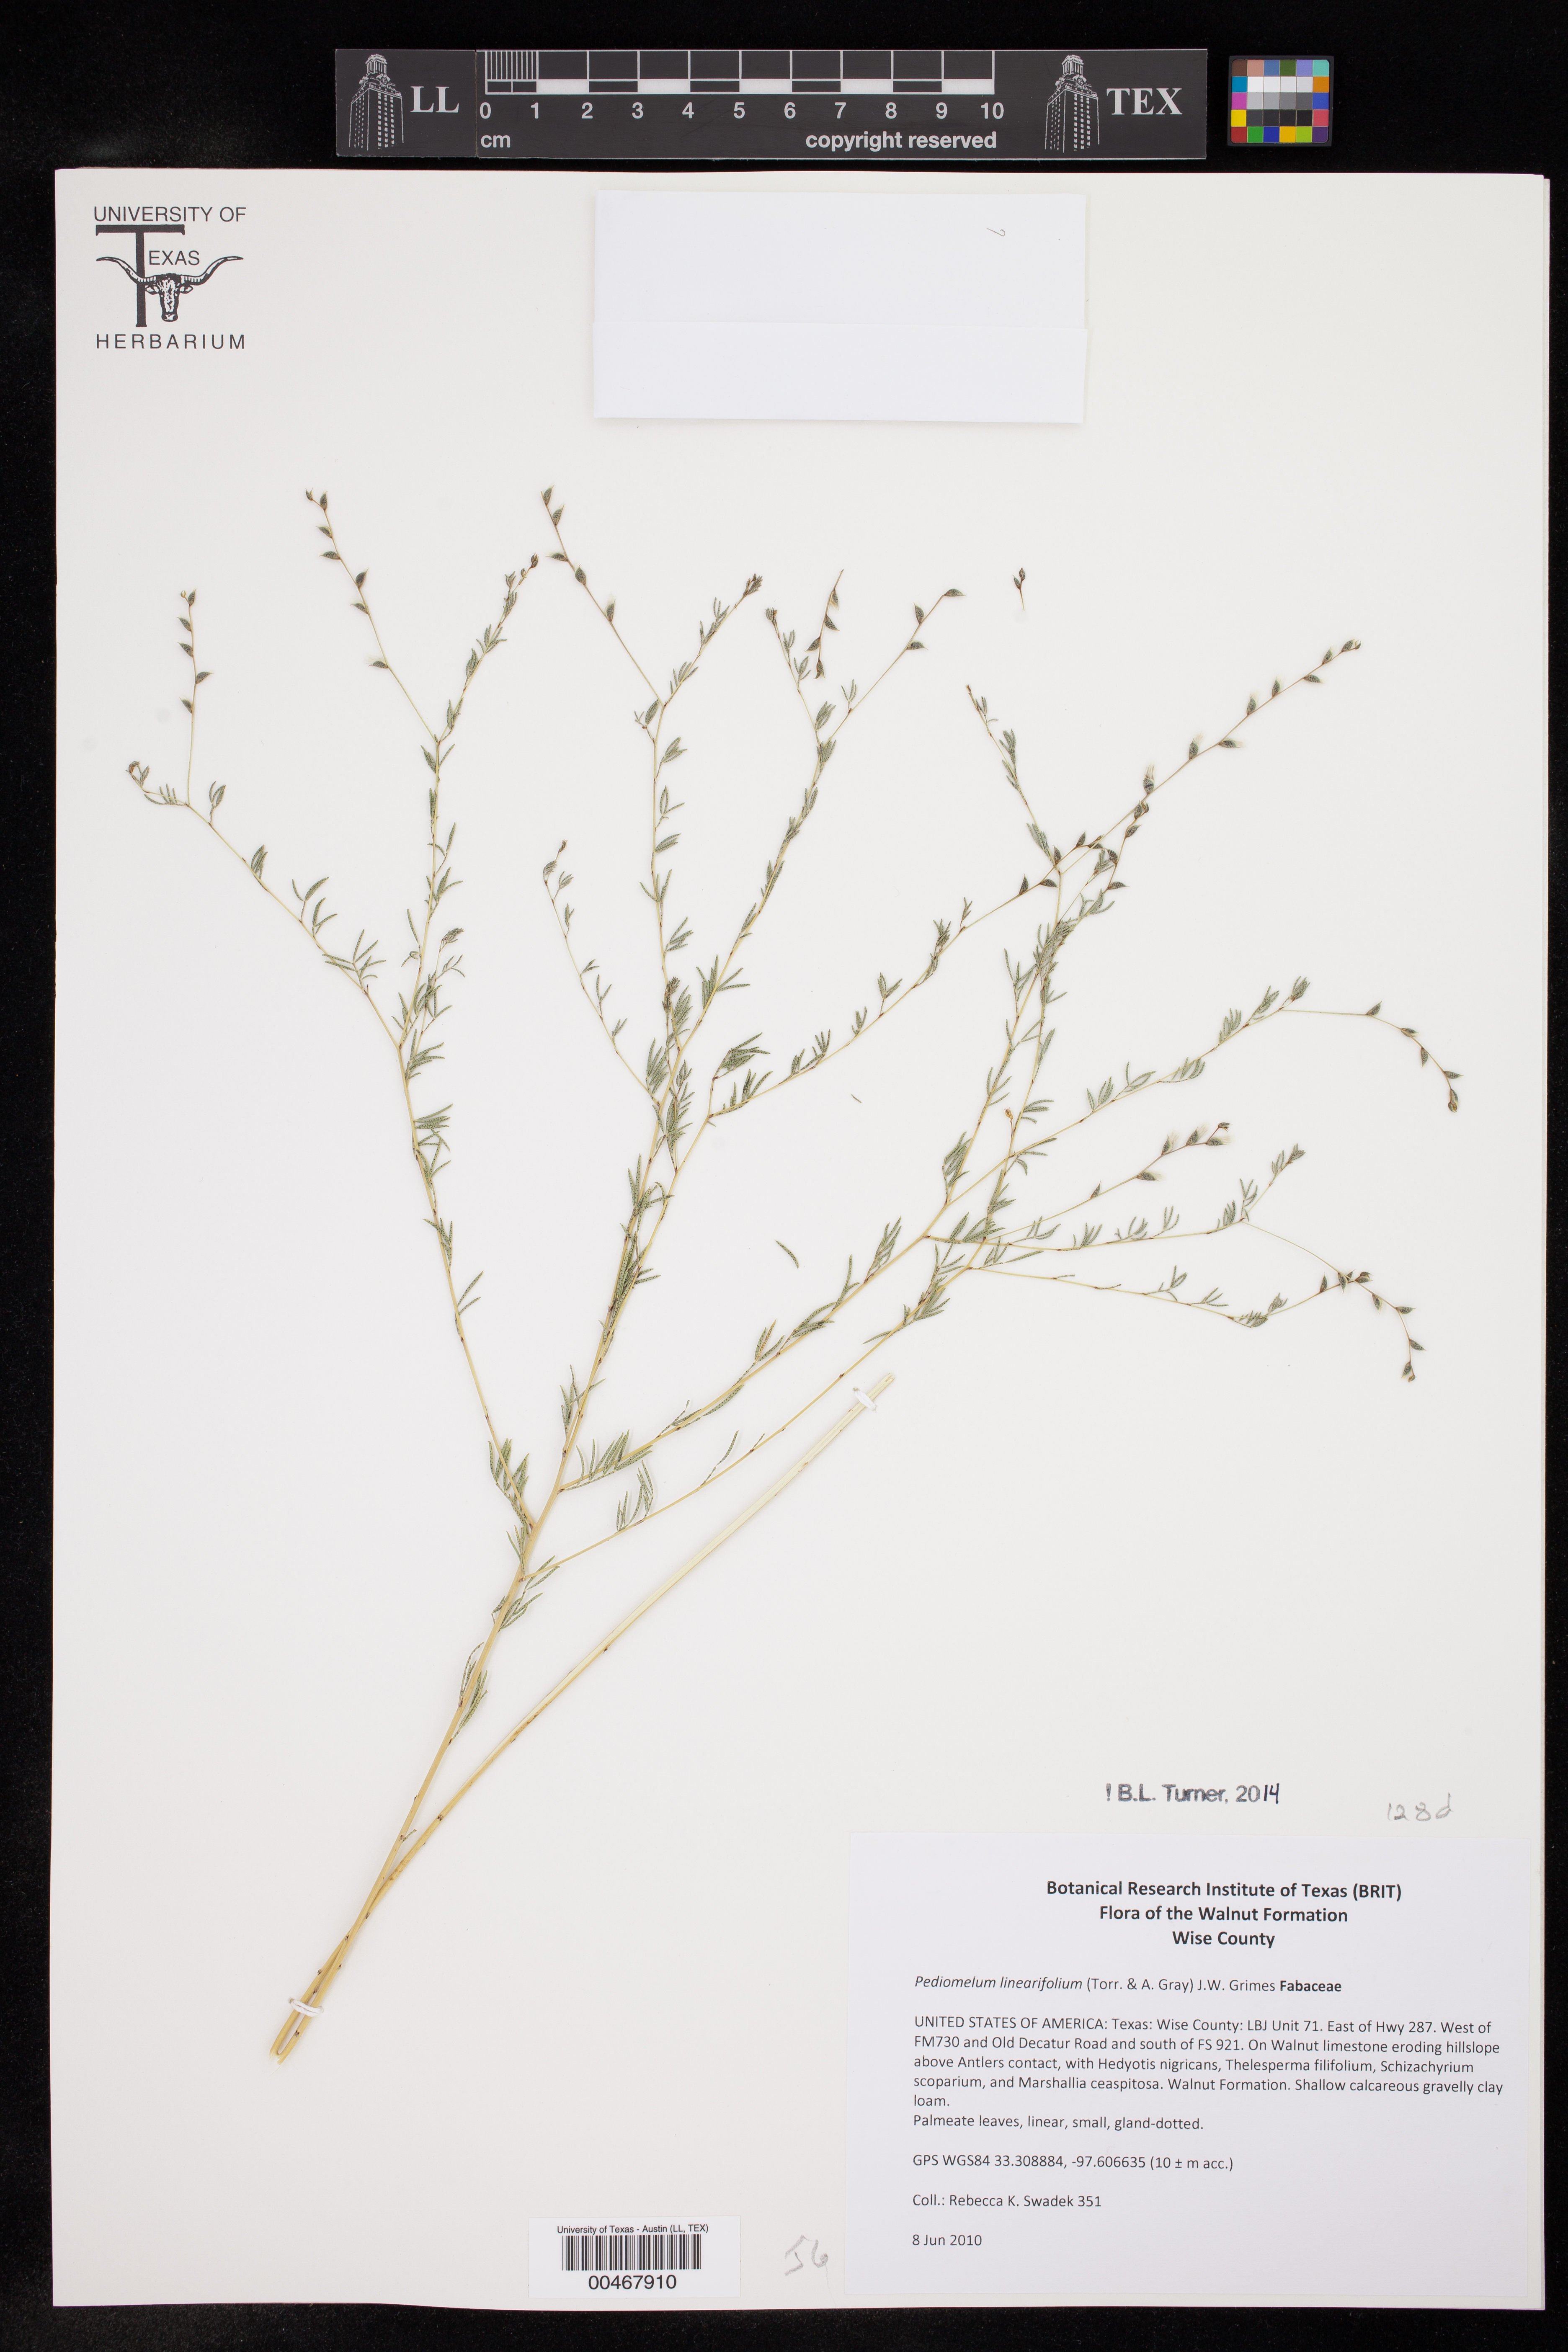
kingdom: Plantae
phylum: Tracheophyta
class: Magnoliopsida
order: Fabales
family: Fabaceae
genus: Pediomelum
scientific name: Pediomelum linearifolium
